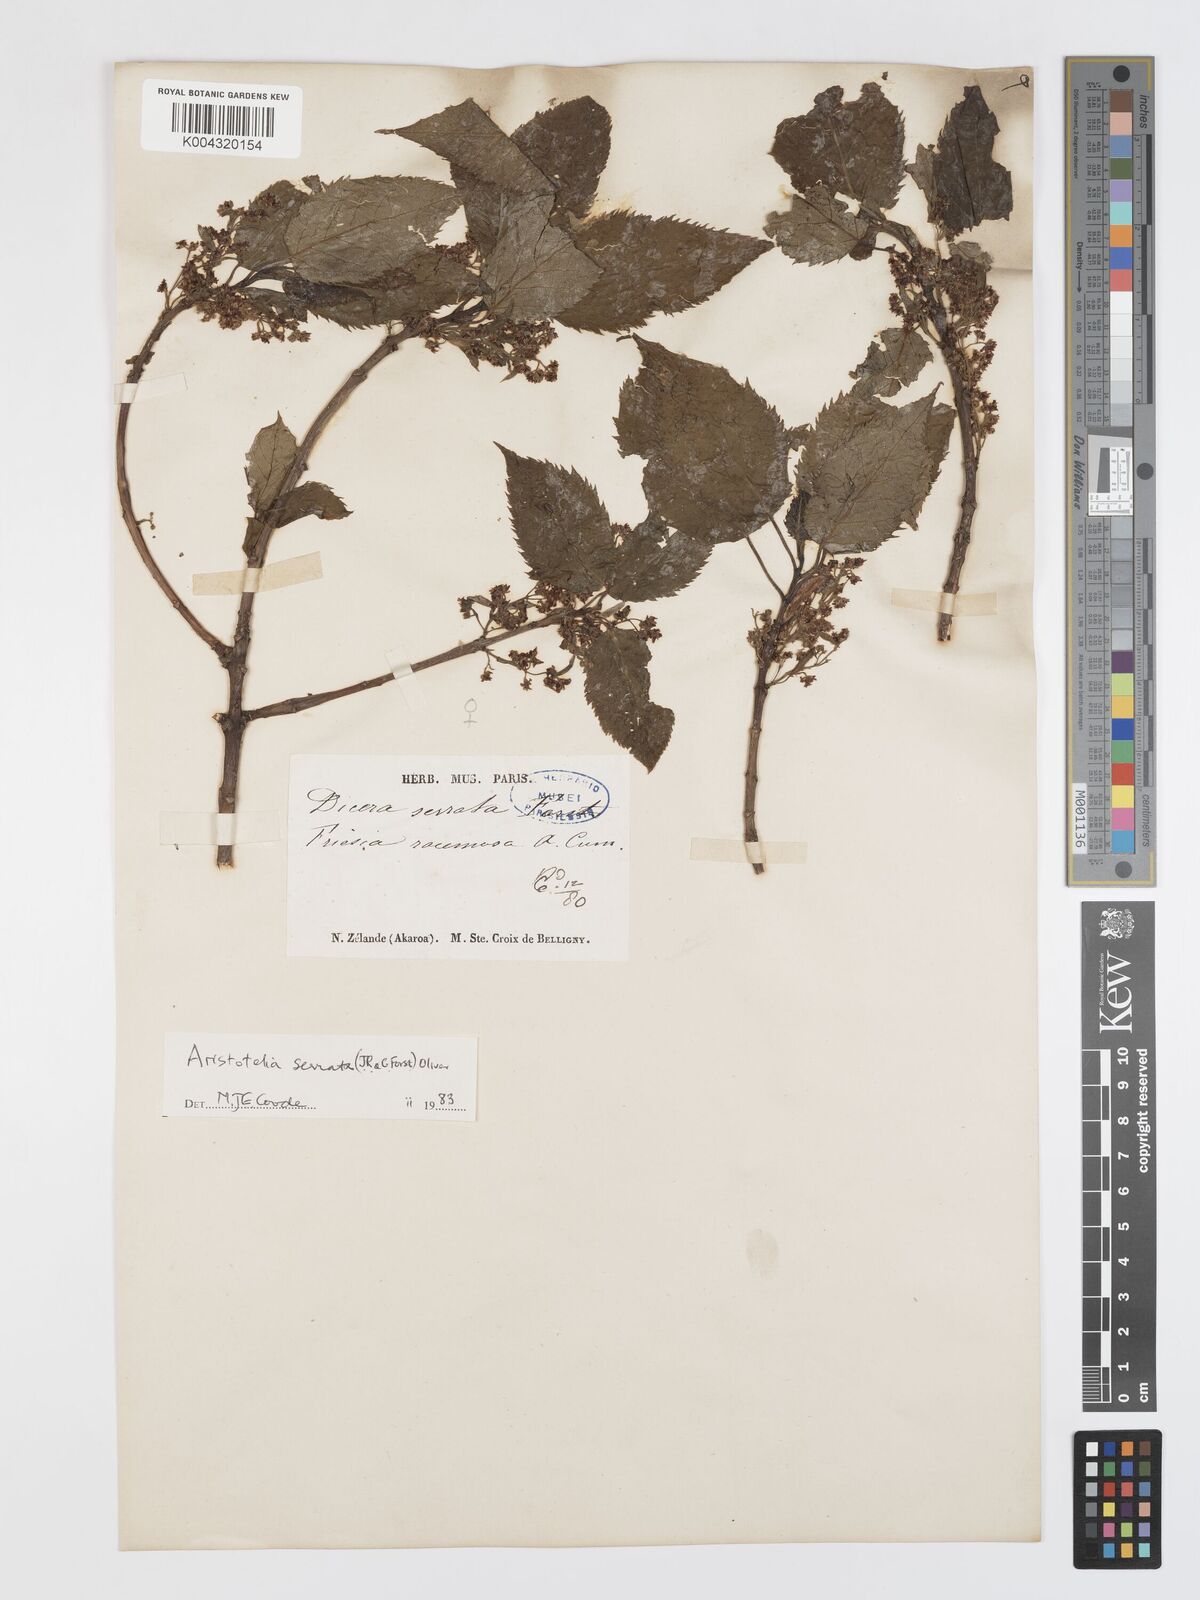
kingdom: Plantae
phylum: Tracheophyta
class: Magnoliopsida
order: Oxalidales
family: Elaeocarpaceae
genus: Aristotelia
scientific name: Aristotelia serrata
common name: New zealand wineberry
